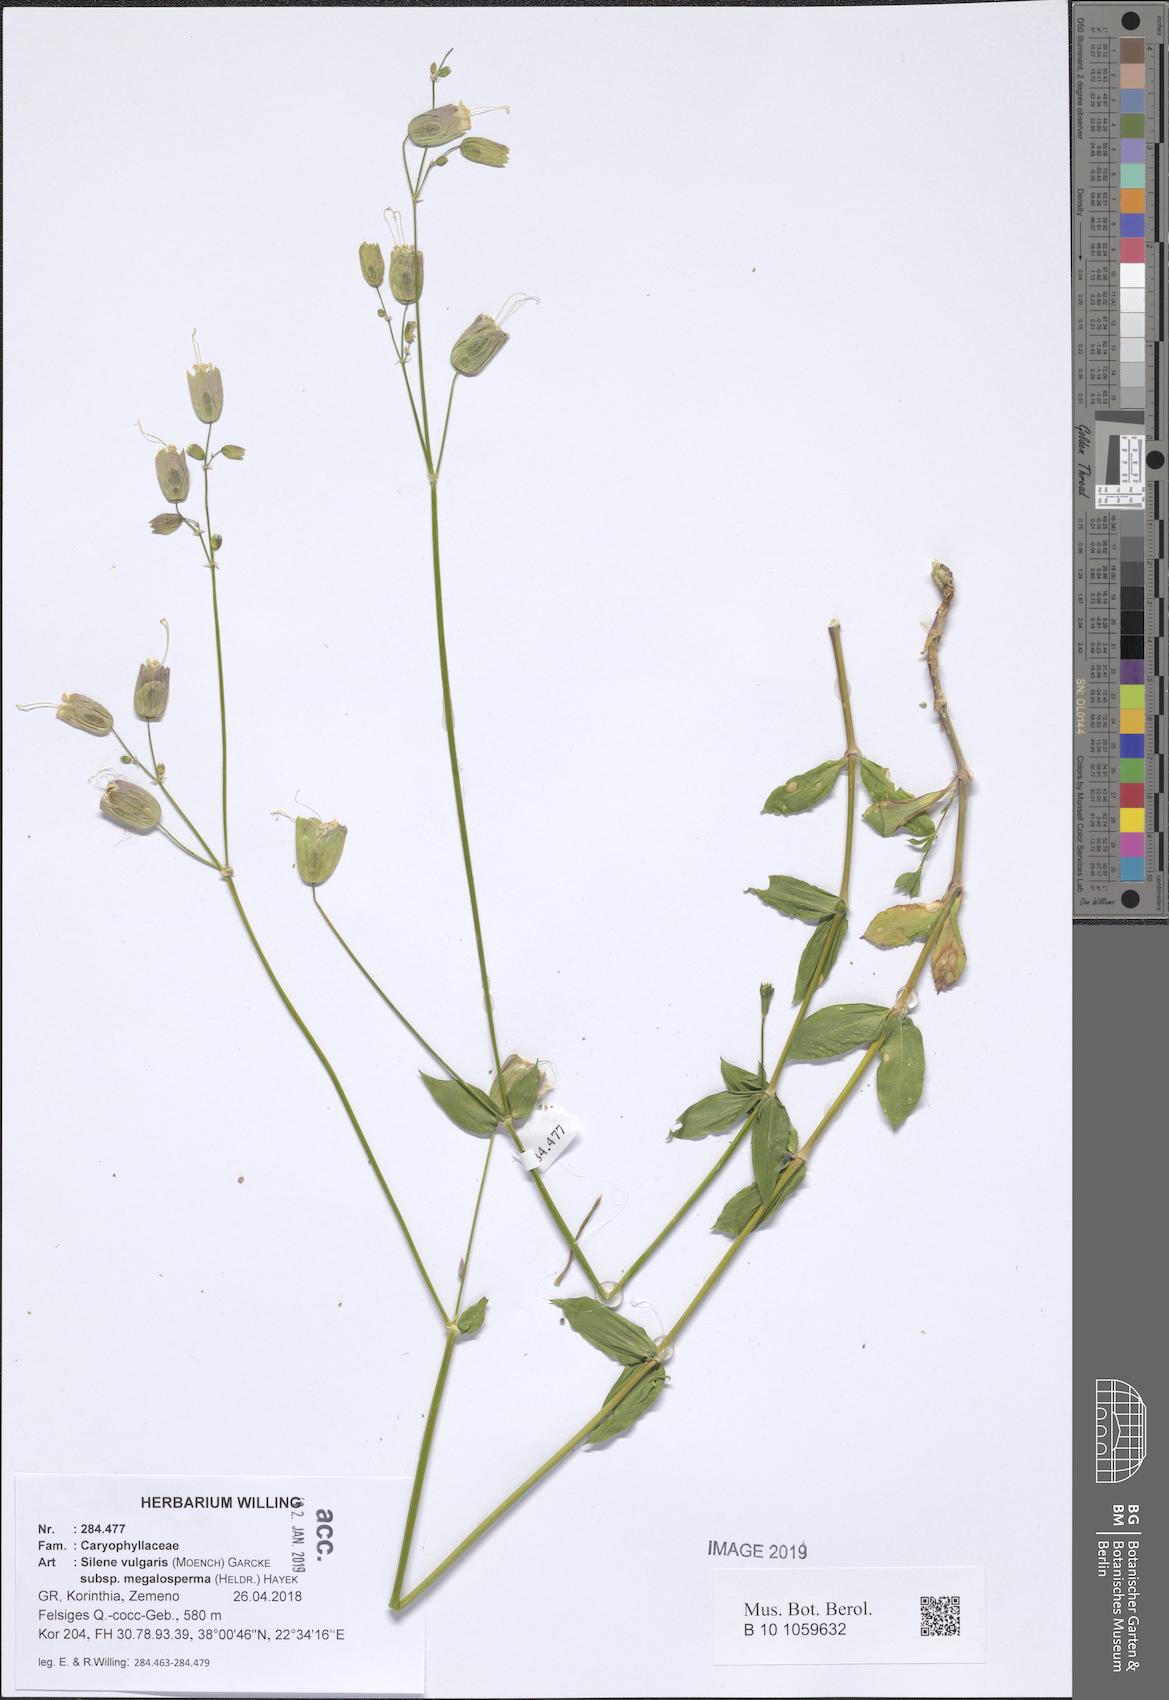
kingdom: Plantae
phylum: Tracheophyta
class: Magnoliopsida
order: Caryophyllales
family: Caryophyllaceae
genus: Silene
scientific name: Silene vulgaris
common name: Bladder campion
